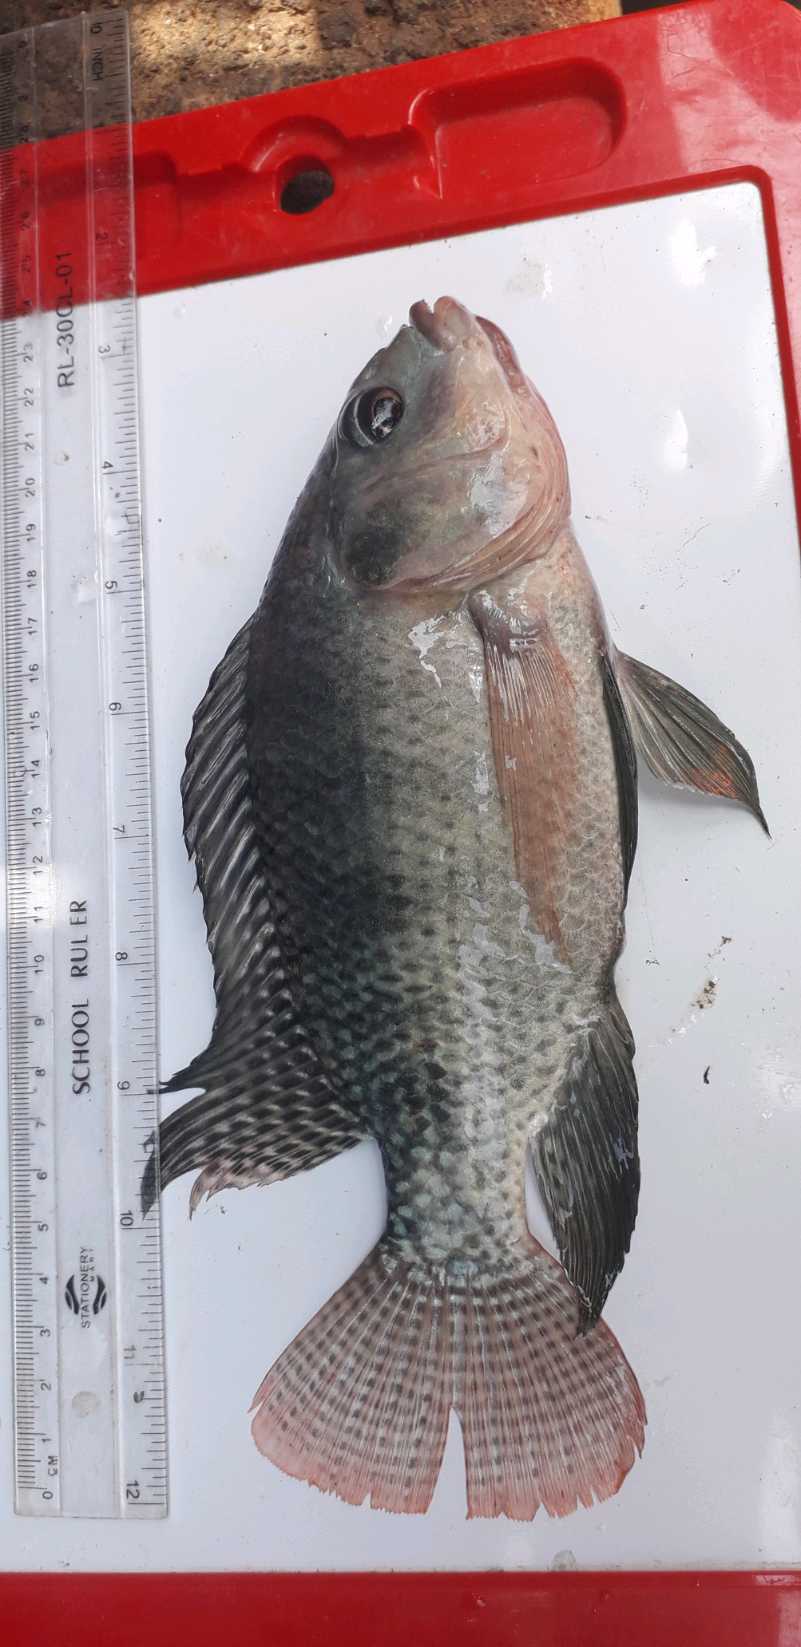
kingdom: Animalia
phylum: Chordata
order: Perciformes
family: Cichlidae
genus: Oreochromis
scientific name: Oreochromis niloticus
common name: Nile tilapia
